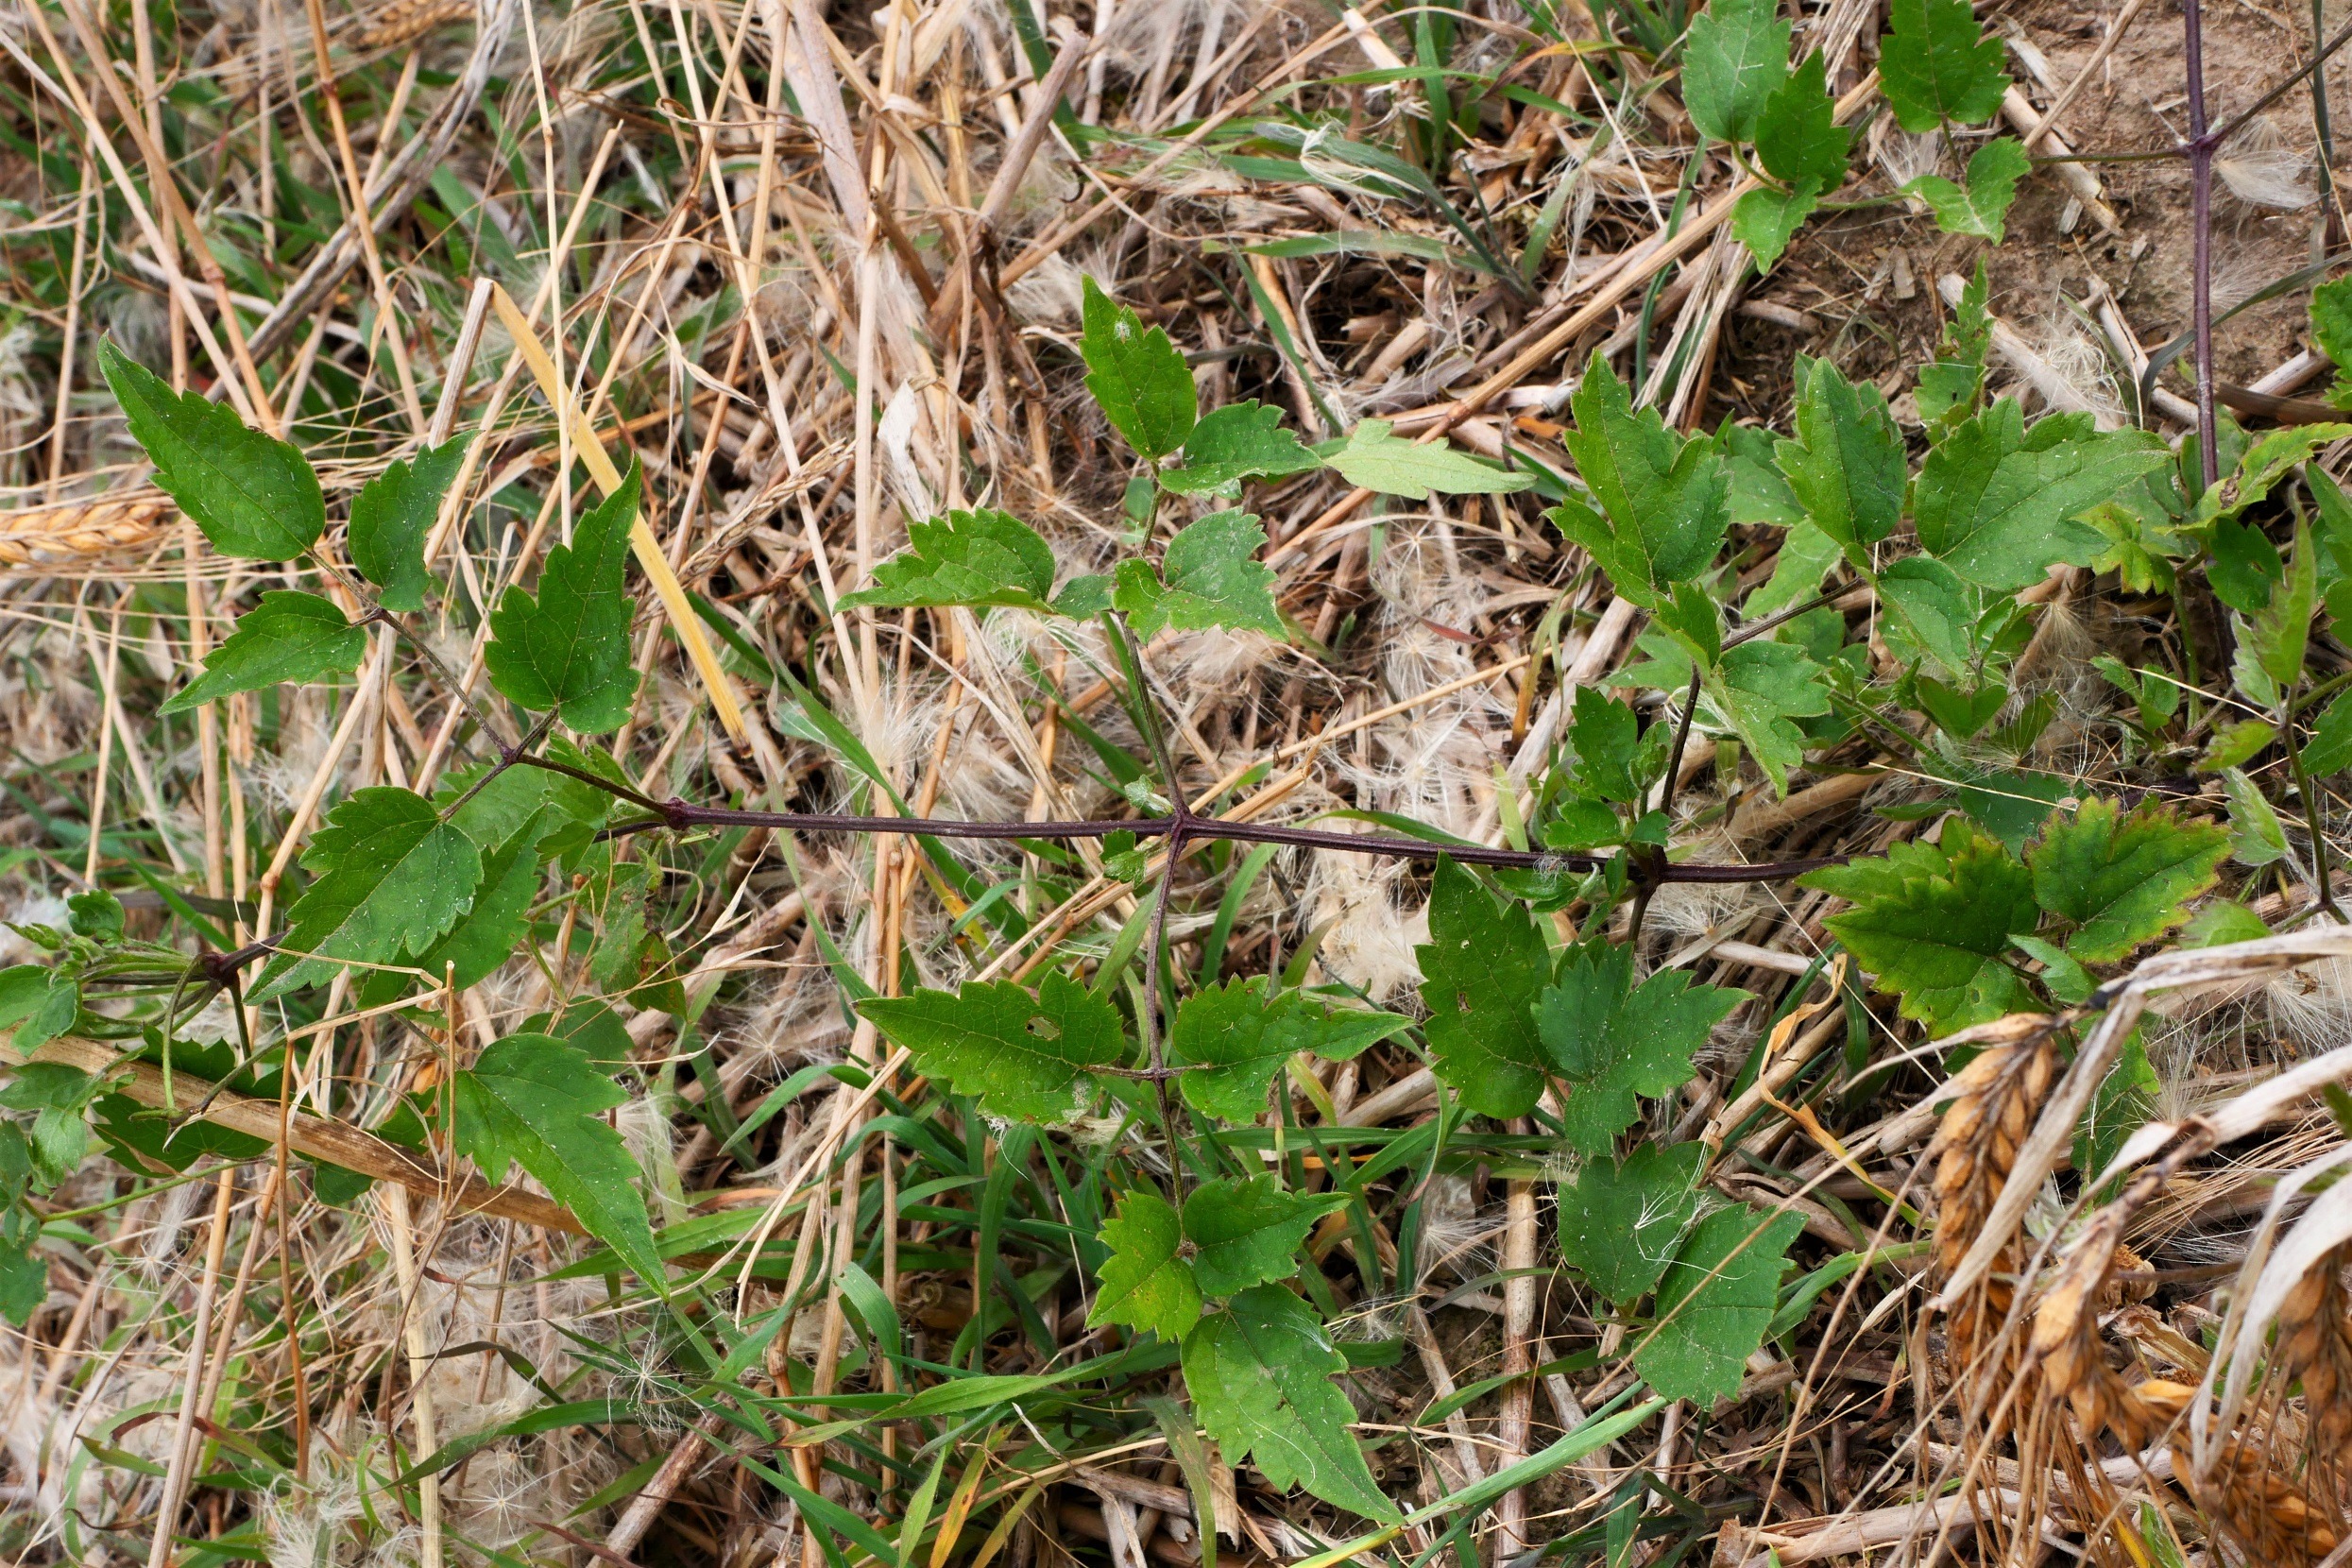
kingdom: Plantae
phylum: Tracheophyta
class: Magnoliopsida
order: Ranunculales
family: Ranunculaceae
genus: Clematis
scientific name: Clematis vitalba
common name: Skovranke
